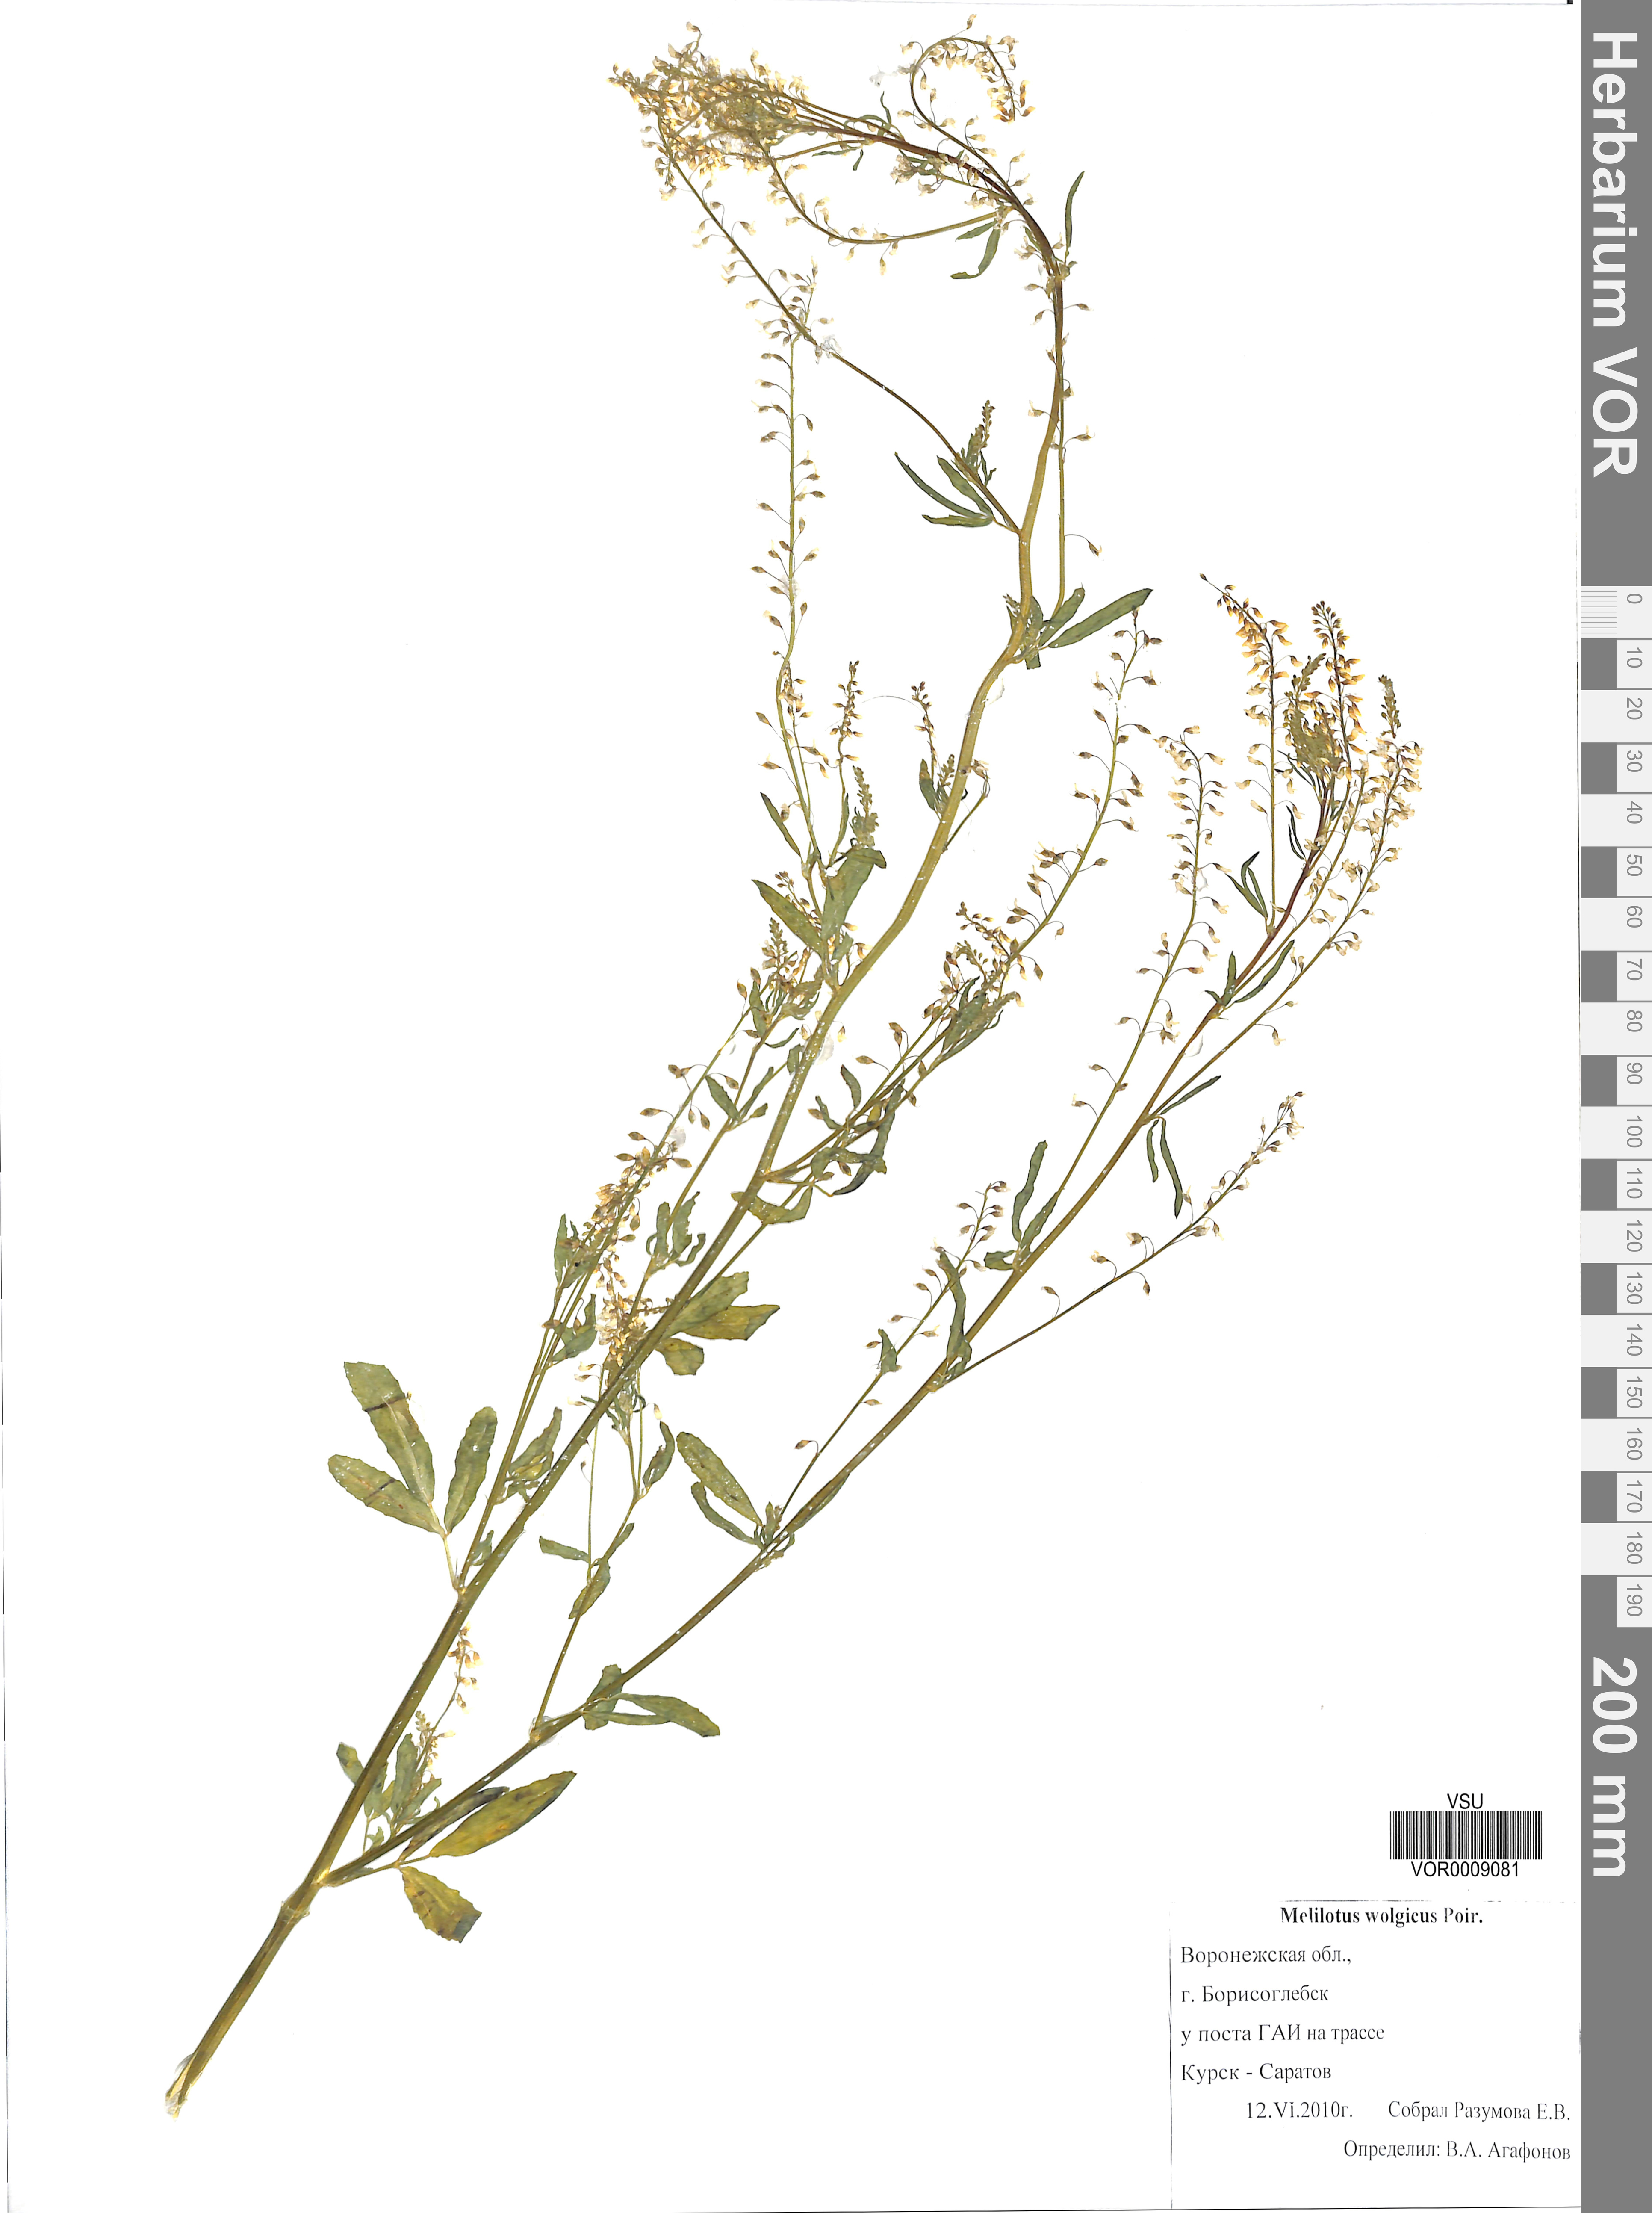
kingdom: Plantae
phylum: Tracheophyta
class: Magnoliopsida
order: Fabales
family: Fabaceae
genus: Melilotus
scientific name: Melilotus wolgicus
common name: Volga sweet-clover
